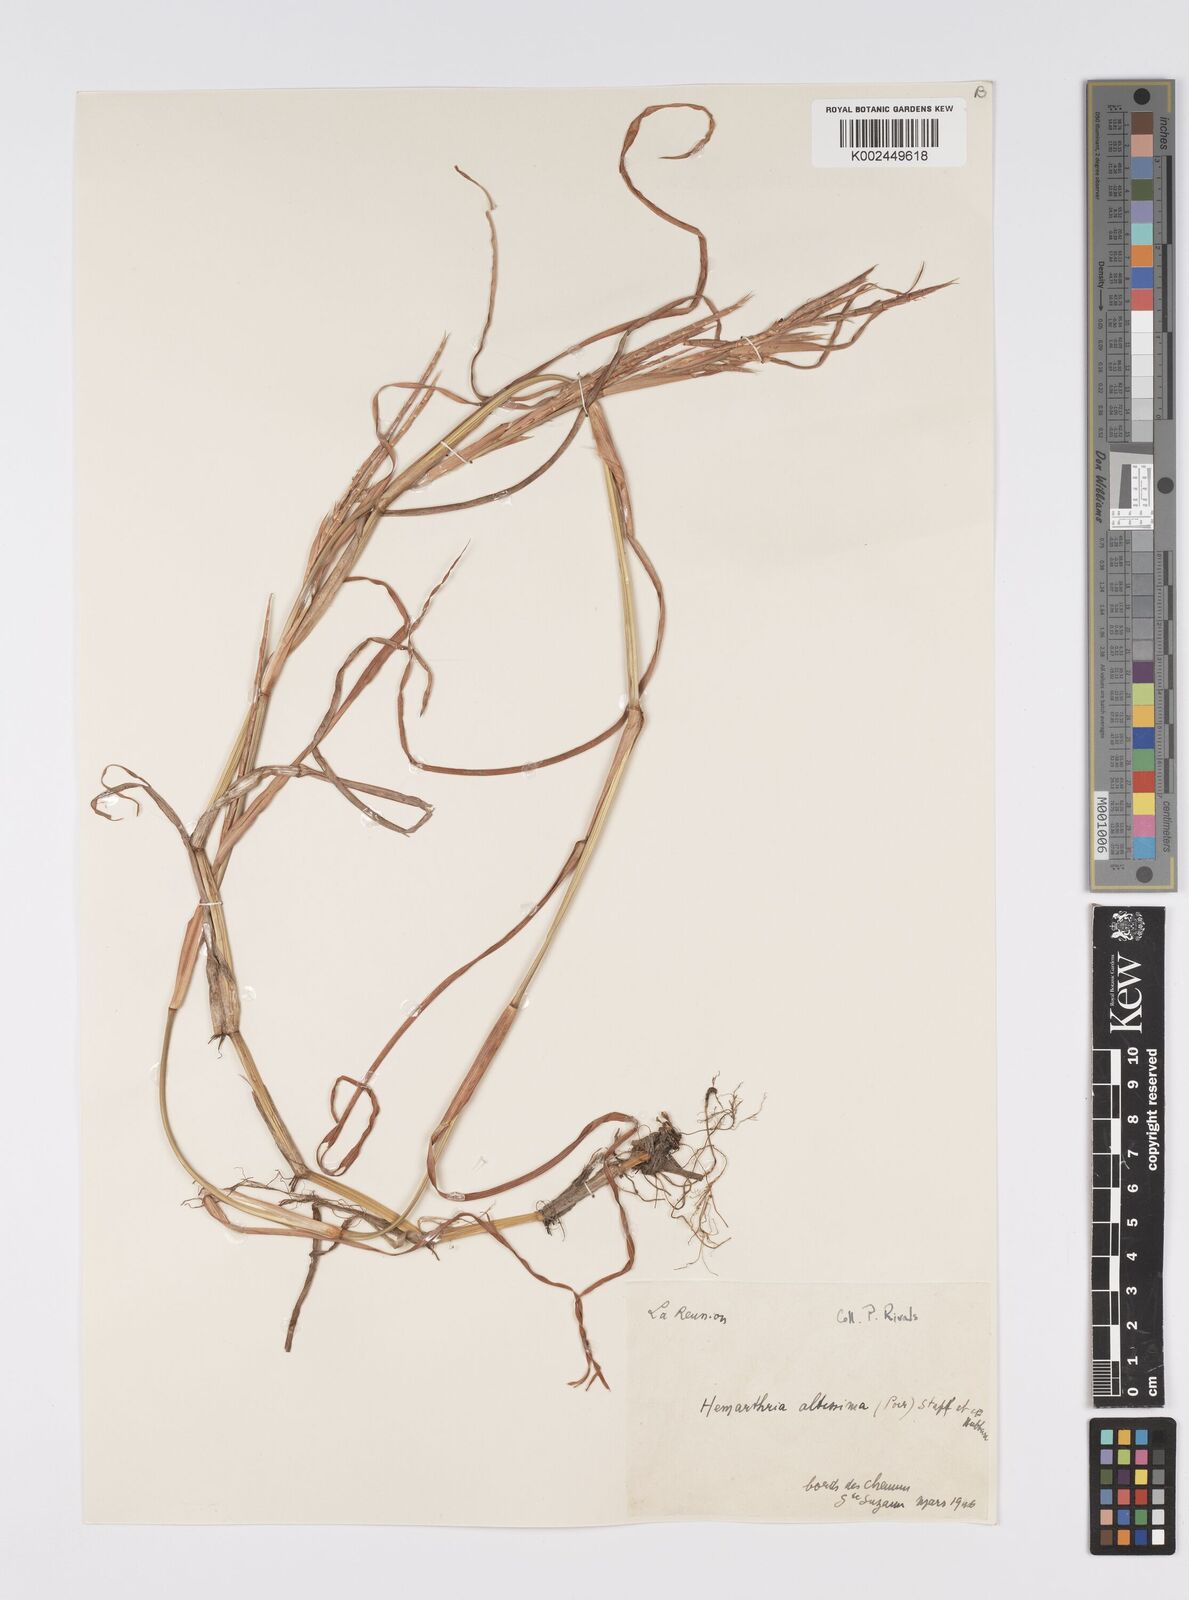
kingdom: Plantae
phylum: Tracheophyta
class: Liliopsida
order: Poales
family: Poaceae
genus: Hemarthria
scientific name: Hemarthria altissima
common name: African jointgrass
